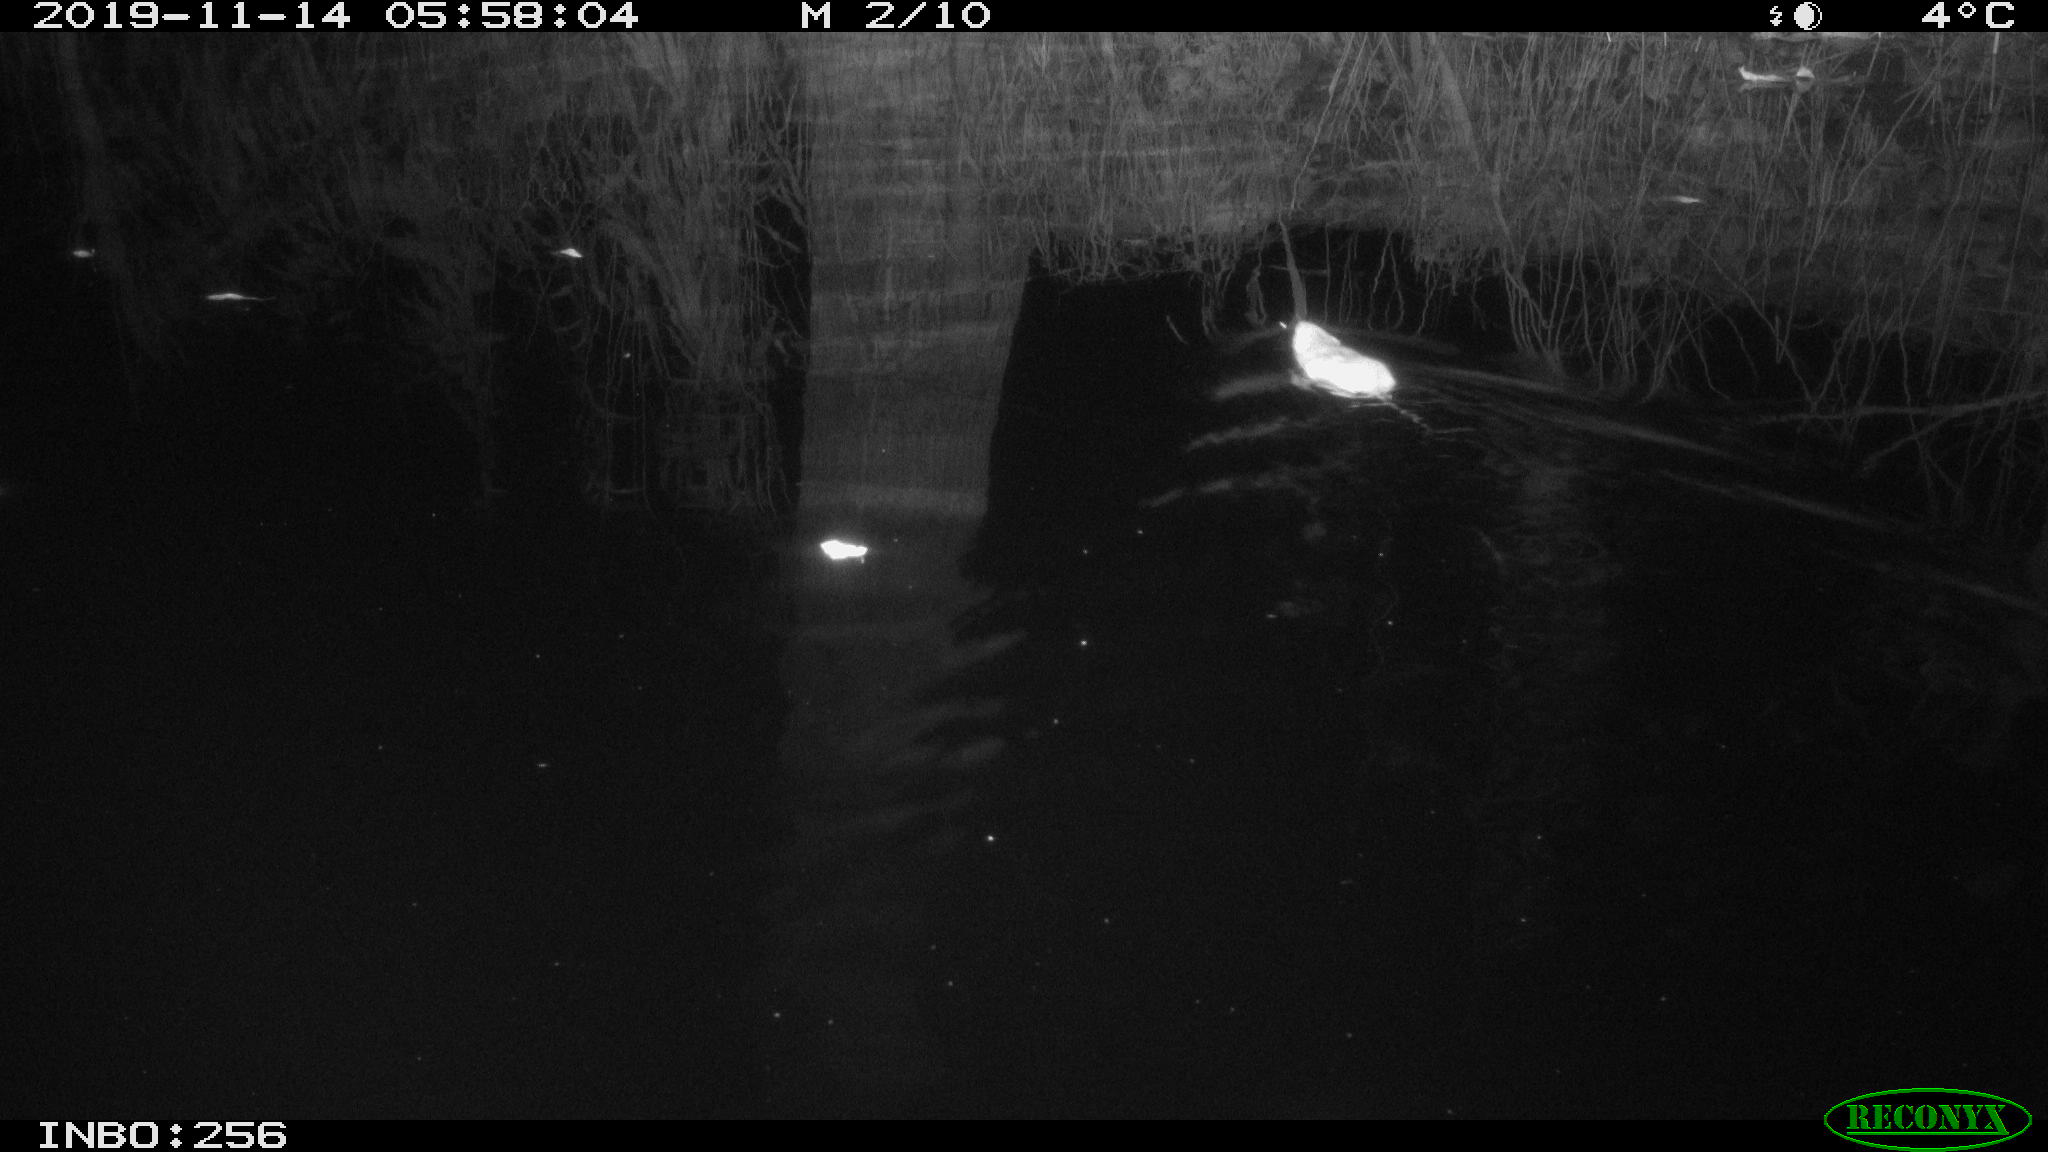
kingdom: Animalia
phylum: Chordata
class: Mammalia
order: Rodentia
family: Muridae
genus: Rattus
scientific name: Rattus norvegicus
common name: Brown rat
